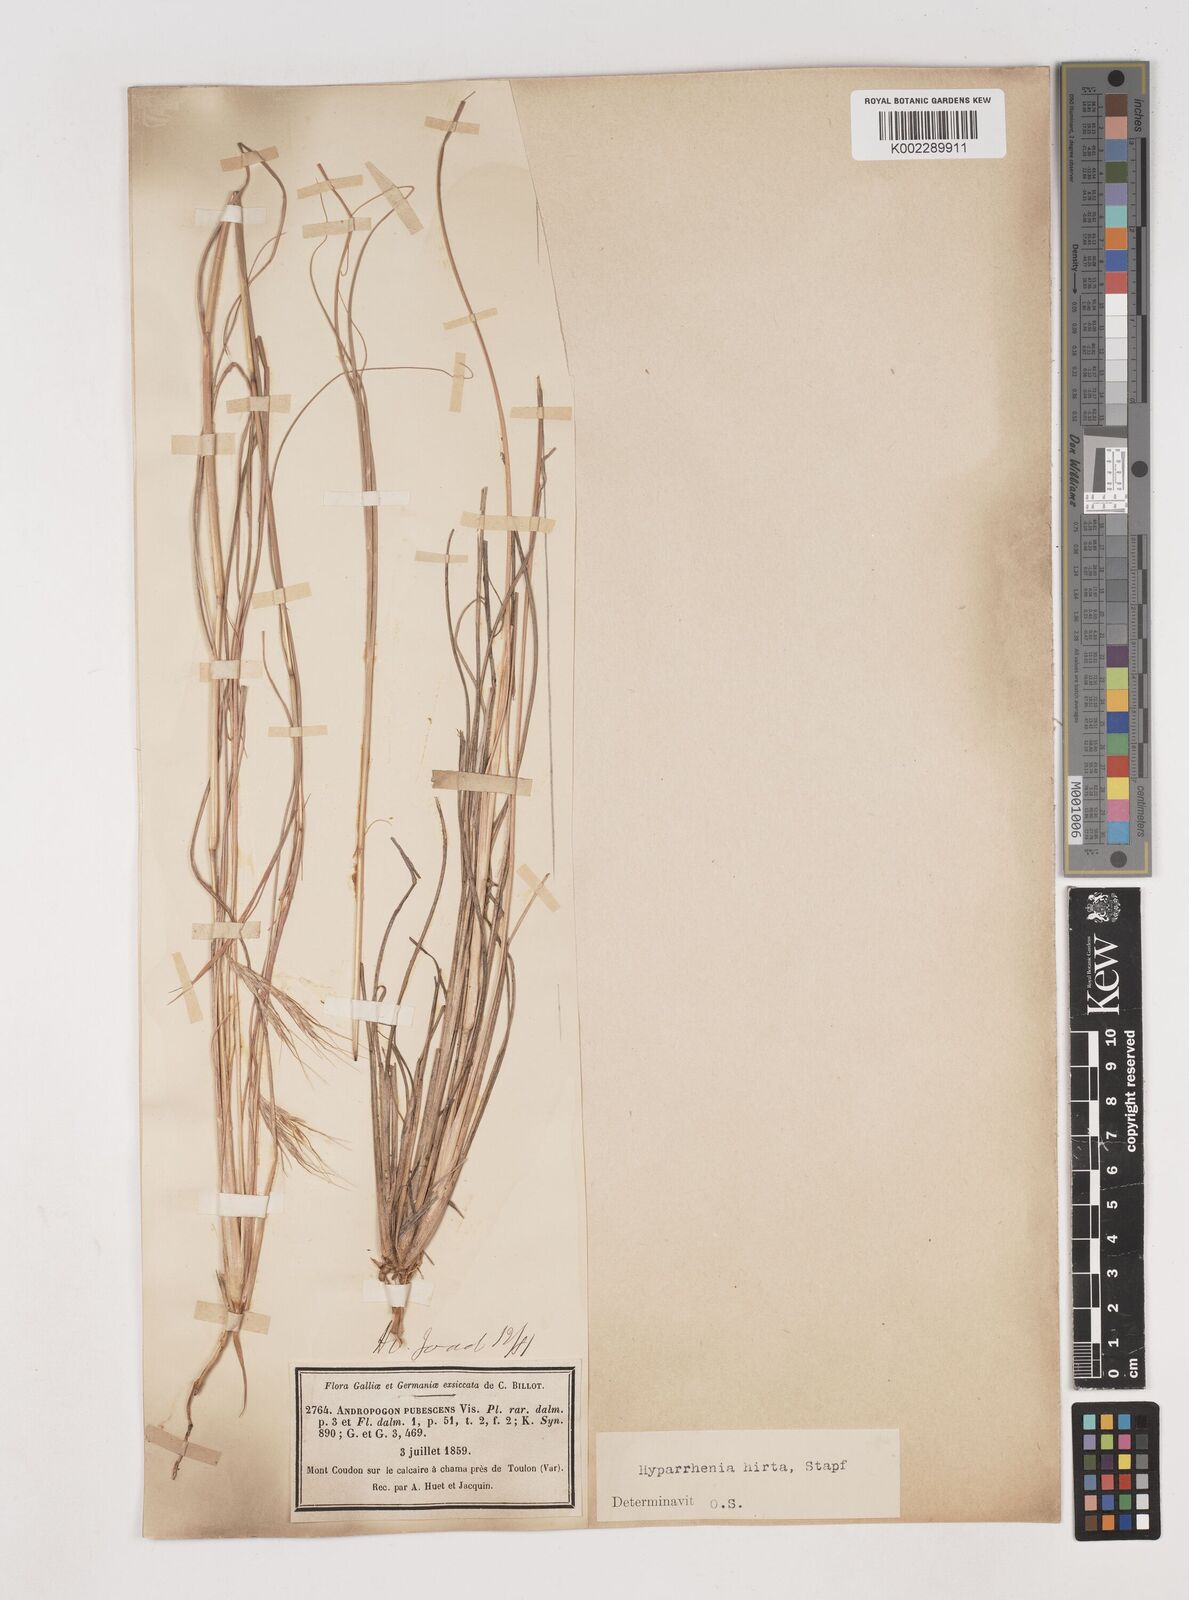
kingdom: Plantae
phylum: Tracheophyta
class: Liliopsida
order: Poales
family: Poaceae
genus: Hyparrhenia
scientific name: Hyparrhenia hirta
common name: Thatching grass
